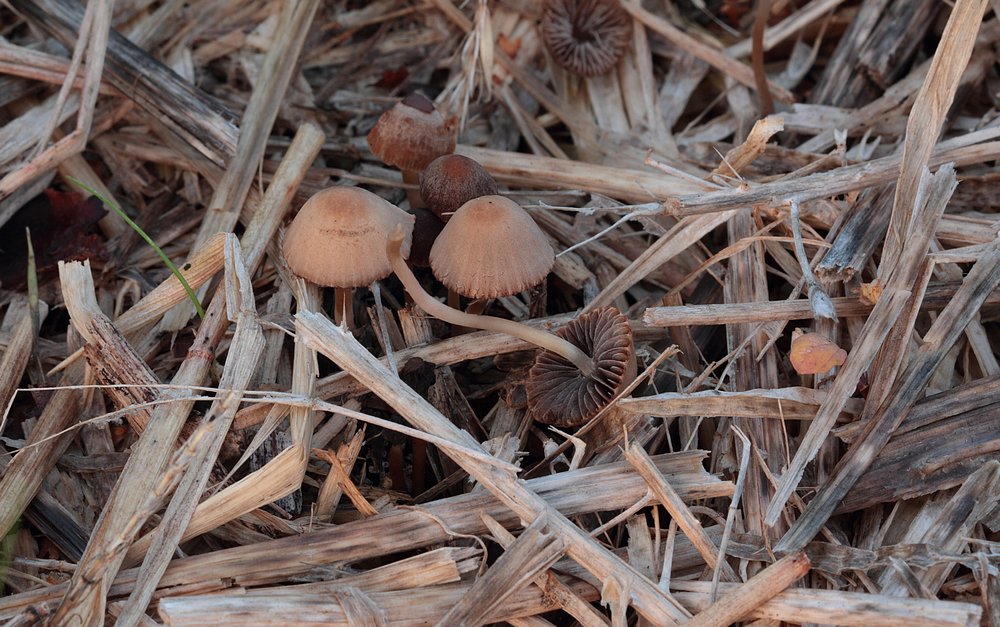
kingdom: Fungi
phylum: Basidiomycota
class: Agaricomycetes
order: Agaricales
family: Psathyrellaceae
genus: Psathyrella
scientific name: Psathyrella potteri
